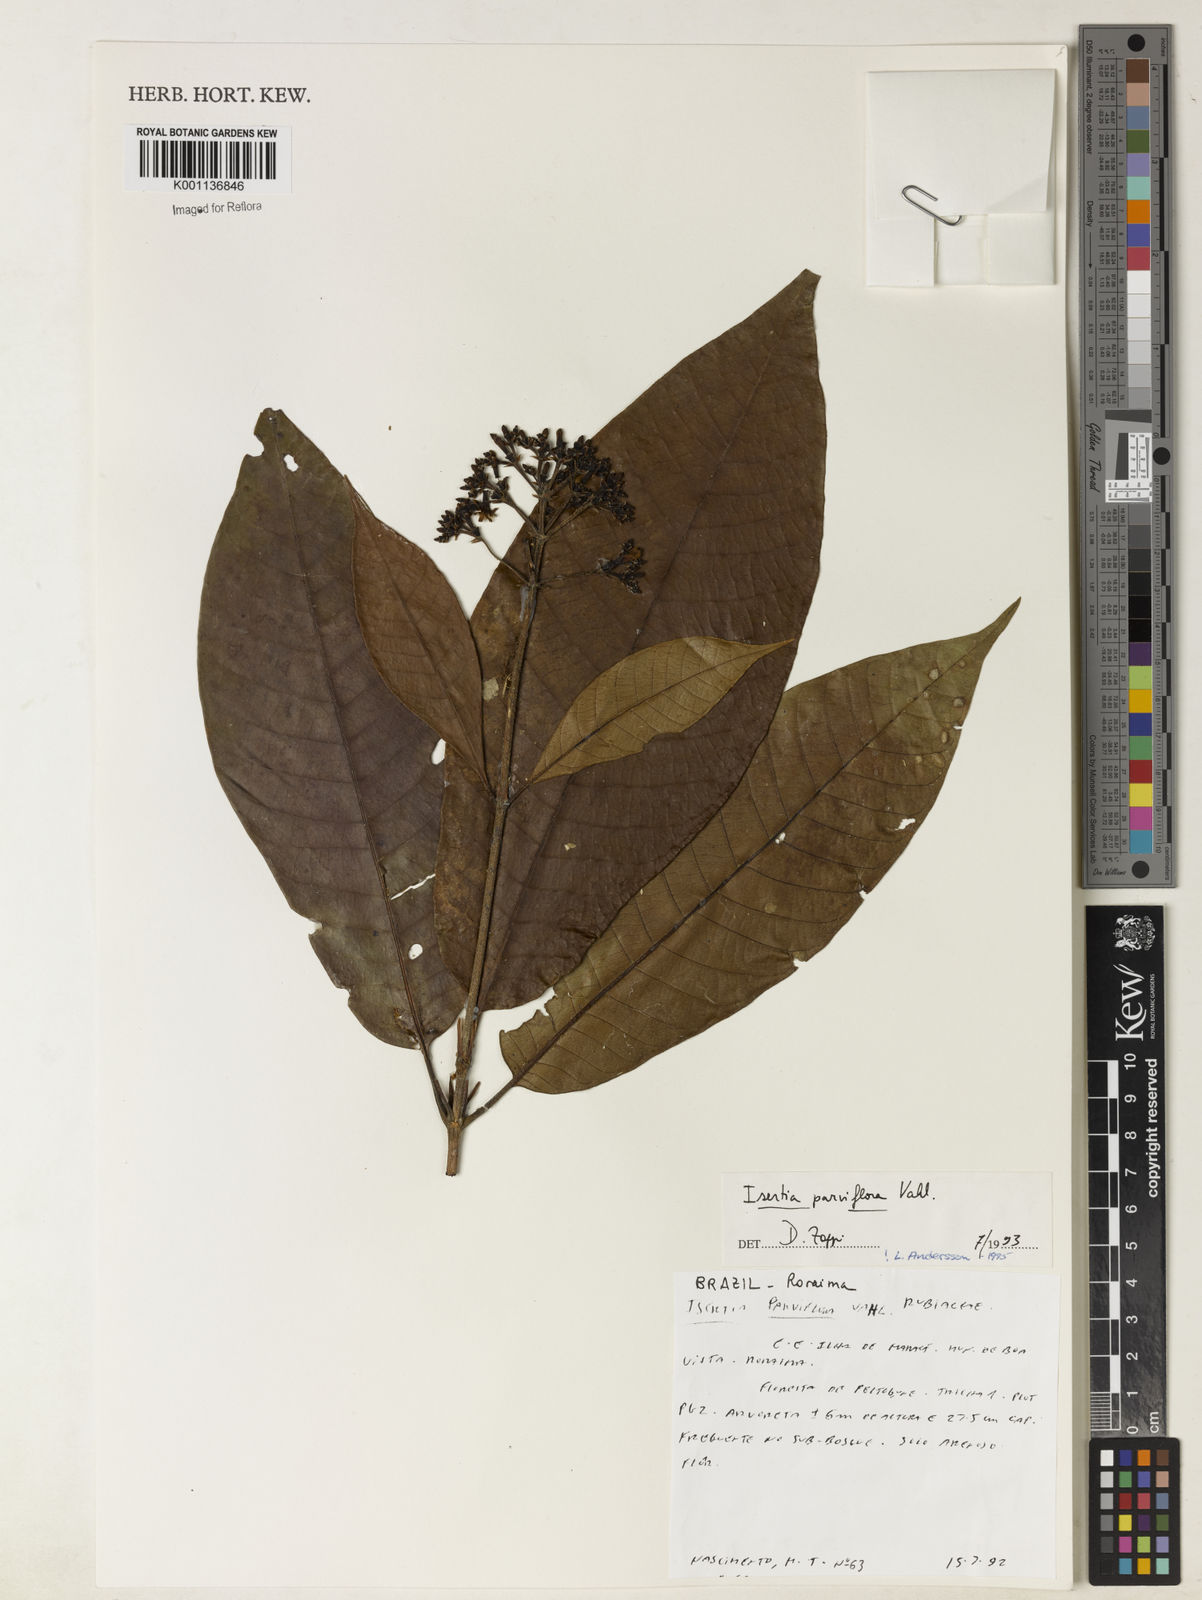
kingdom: Plantae
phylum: Tracheophyta
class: Magnoliopsida
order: Gentianales
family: Rubiaceae
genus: Isertia
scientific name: Isertia parviflora
